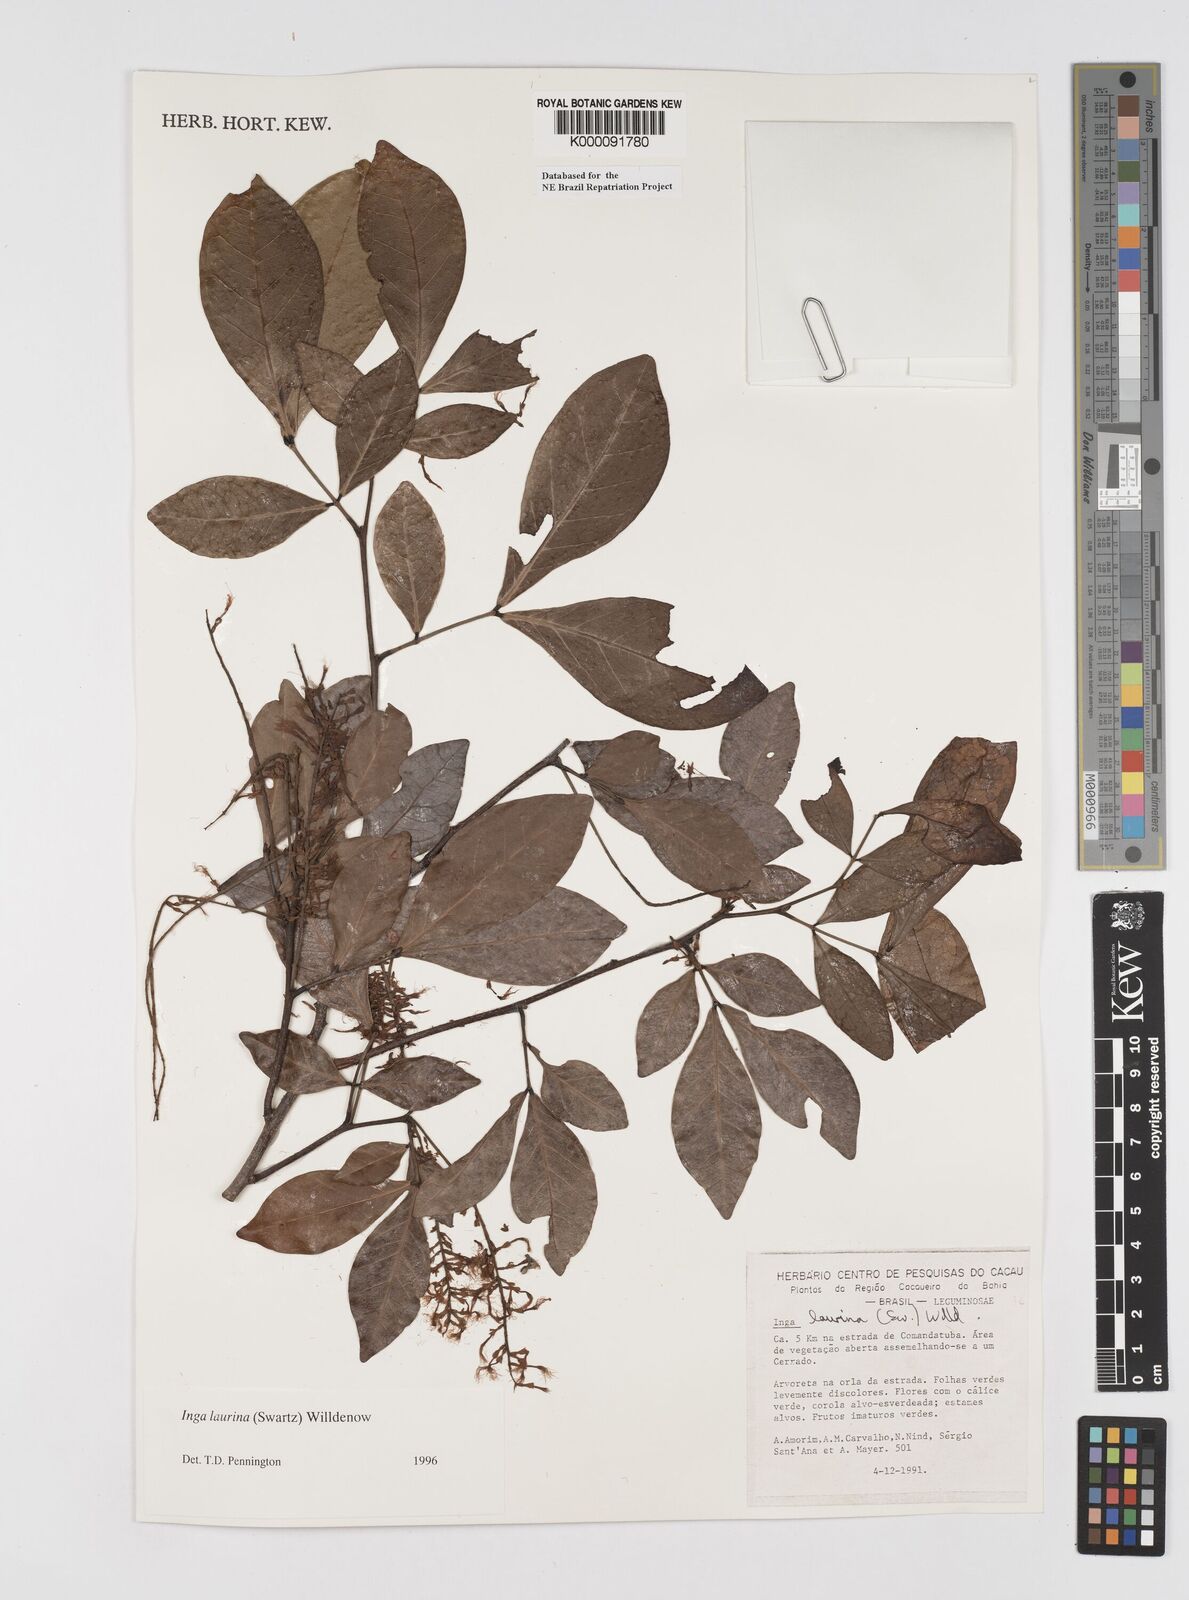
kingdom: Plantae
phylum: Tracheophyta
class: Magnoliopsida
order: Fabales
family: Fabaceae
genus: Inga
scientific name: Inga laurina
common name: Red wood
